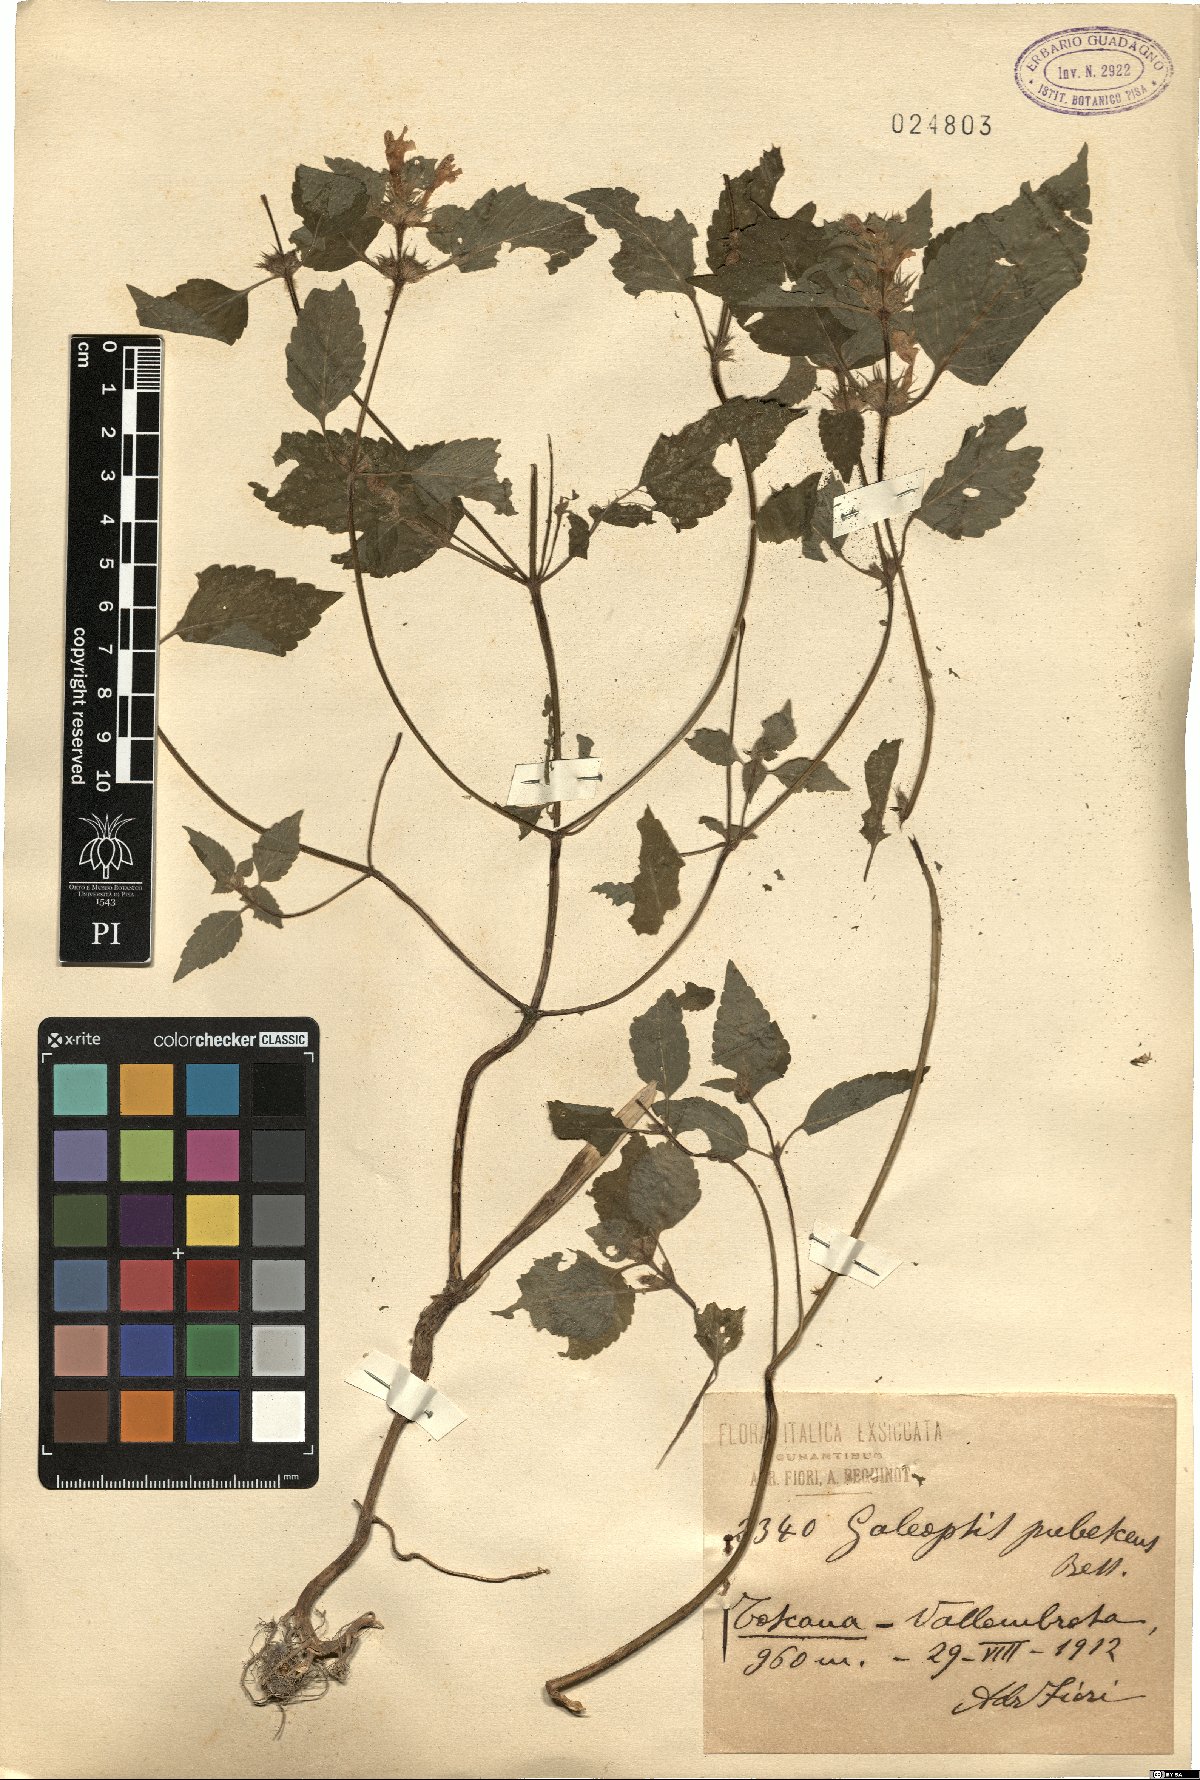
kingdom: Plantae
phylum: Tracheophyta
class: Magnoliopsida
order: Lamiales
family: Lamiaceae
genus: Galeopsis
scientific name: Galeopsis pubescens
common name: Downy hemp-nettle
